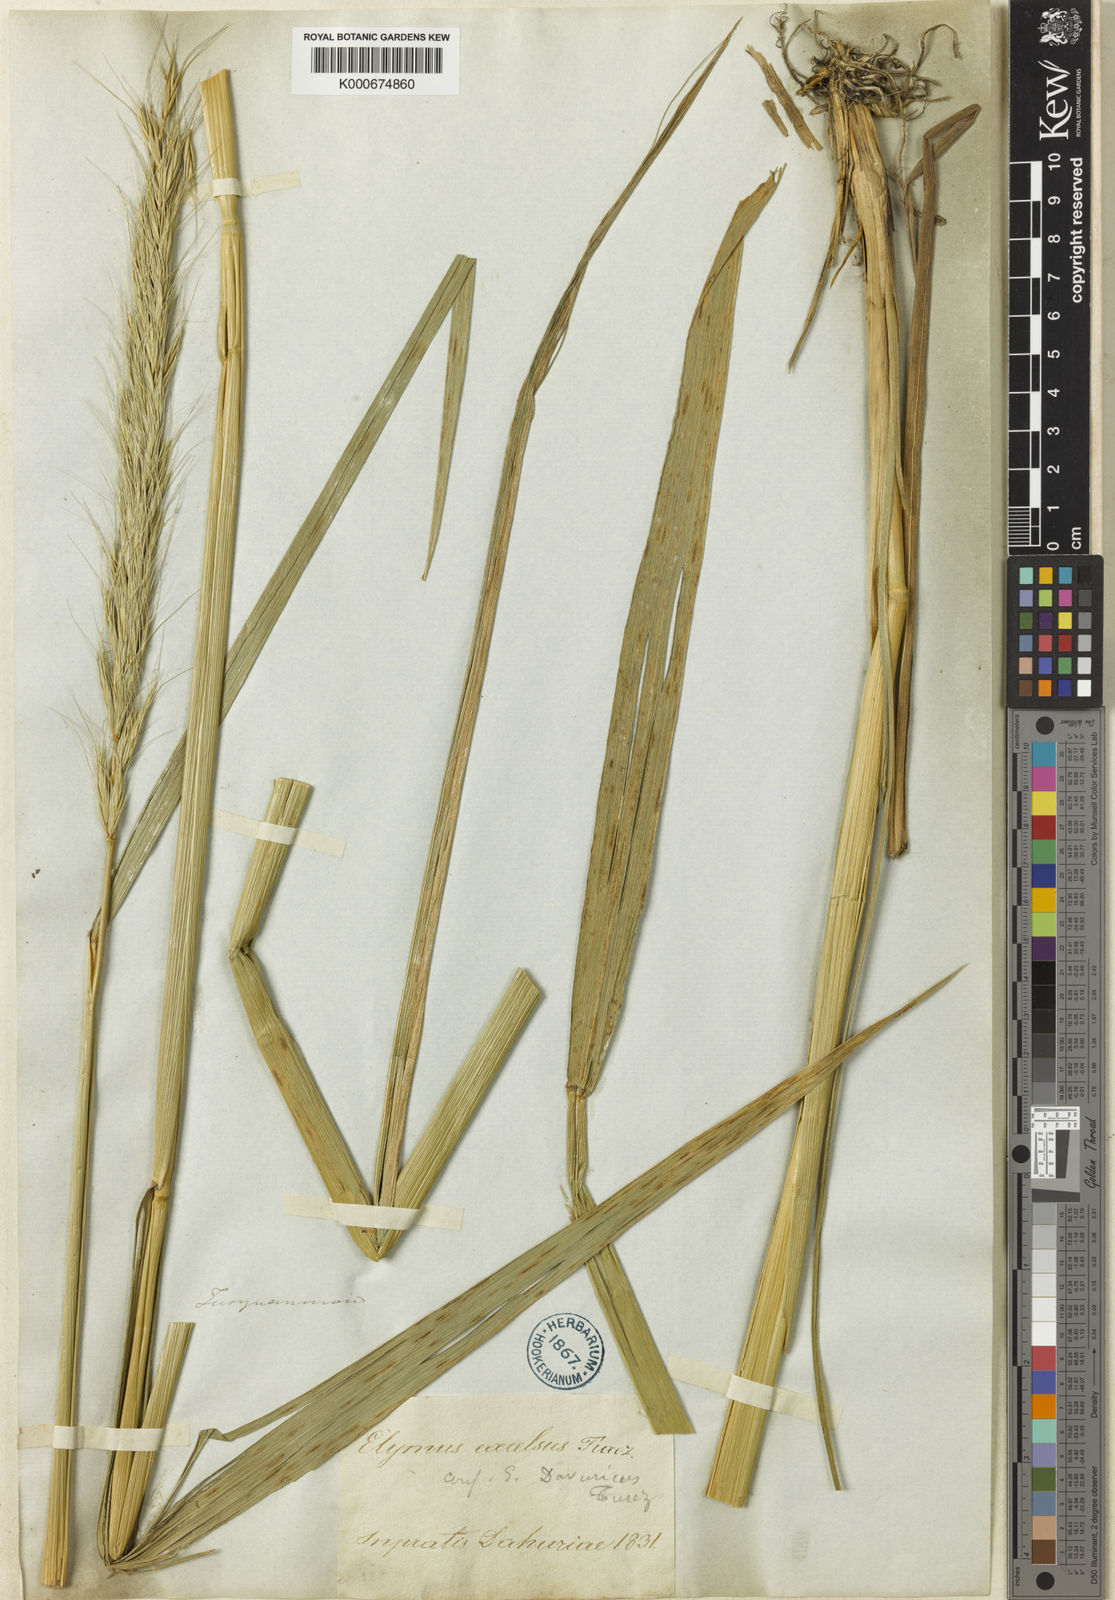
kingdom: Plantae
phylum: Tracheophyta
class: Liliopsida
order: Poales
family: Poaceae
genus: Elymus
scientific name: Elymus
